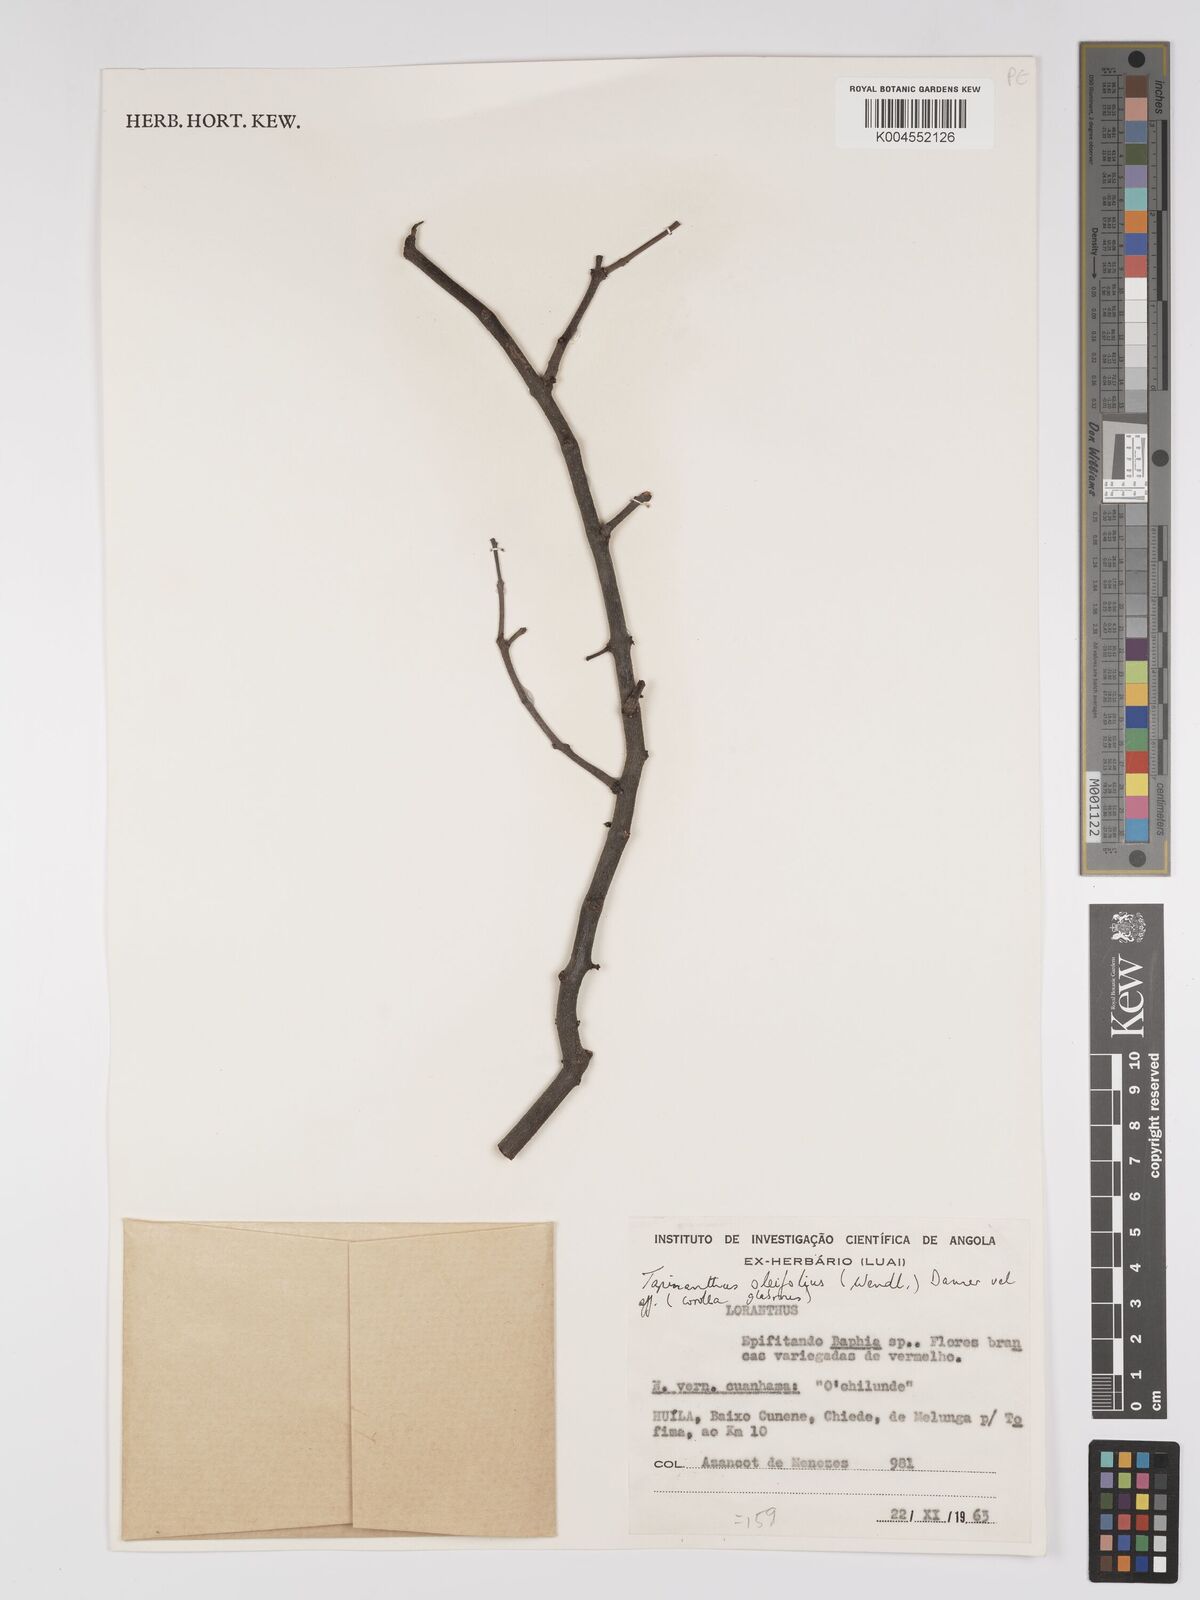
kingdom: Plantae
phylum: Tracheophyta
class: Magnoliopsida
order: Santalales
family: Loranthaceae
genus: Tapinanthus
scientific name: Tapinanthus forbesii
